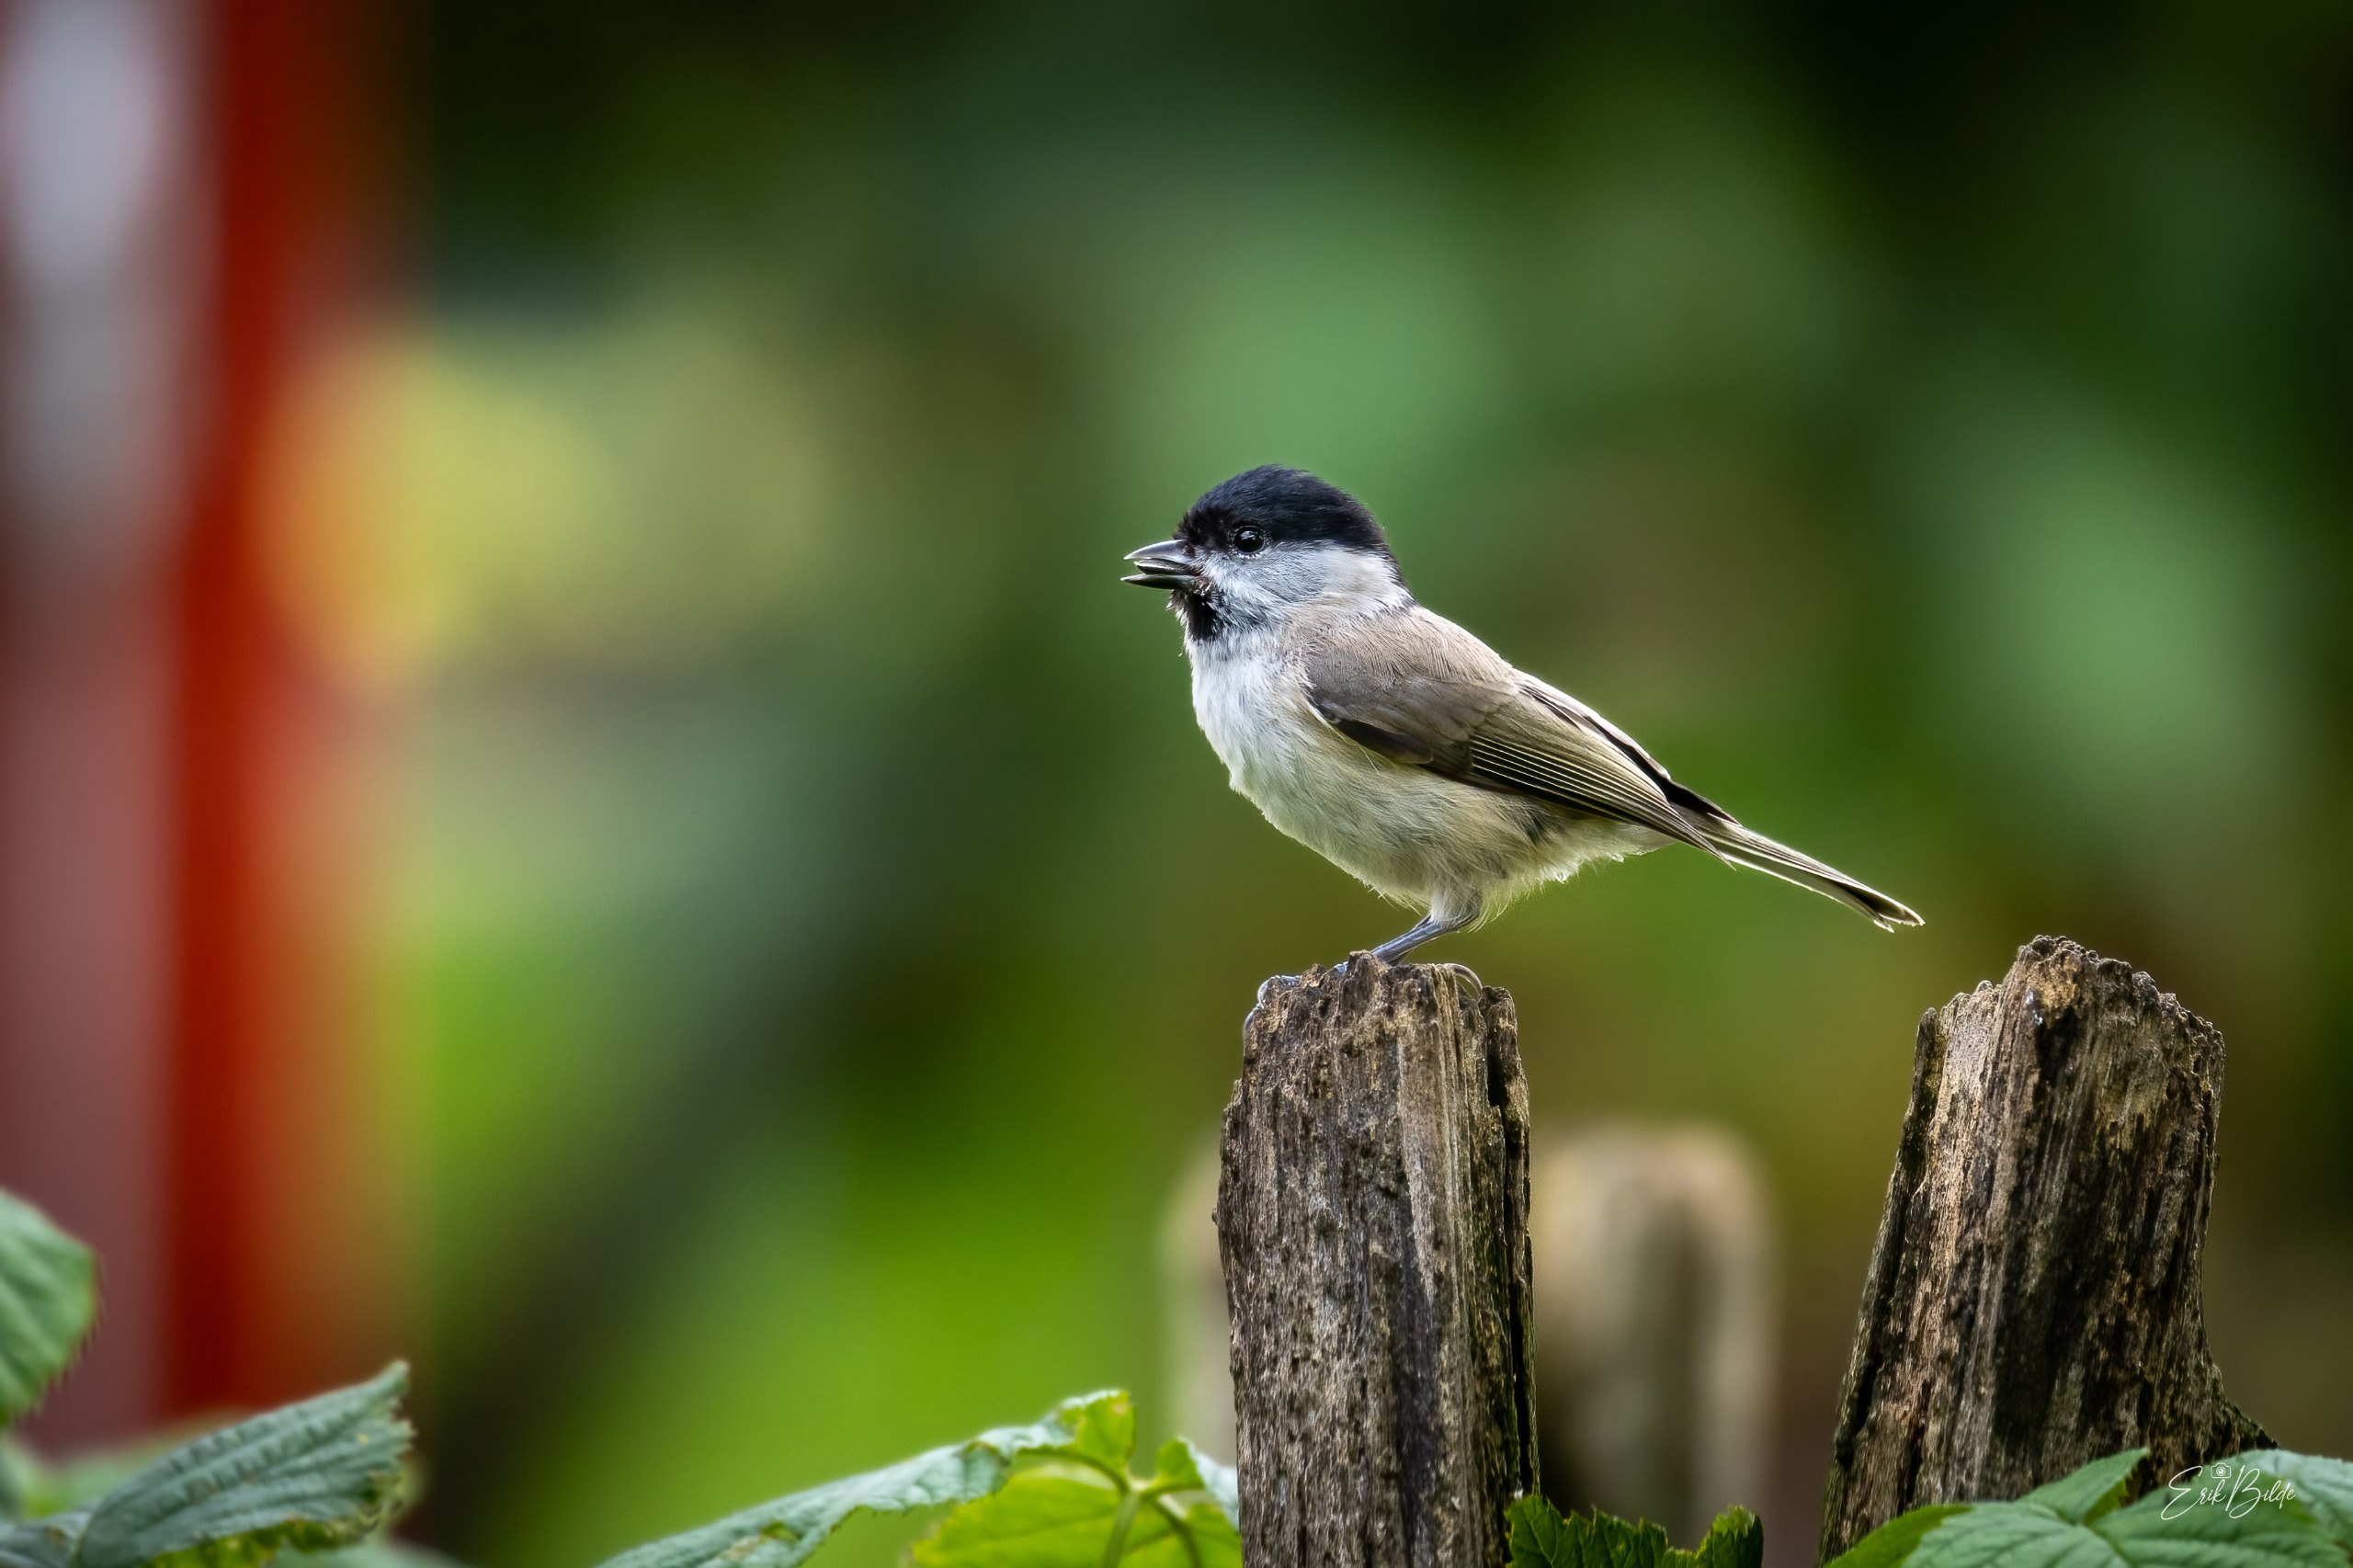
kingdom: Animalia
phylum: Chordata
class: Aves
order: Passeriformes
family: Paridae
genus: Poecile
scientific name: Poecile palustris
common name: Sumpmejse
